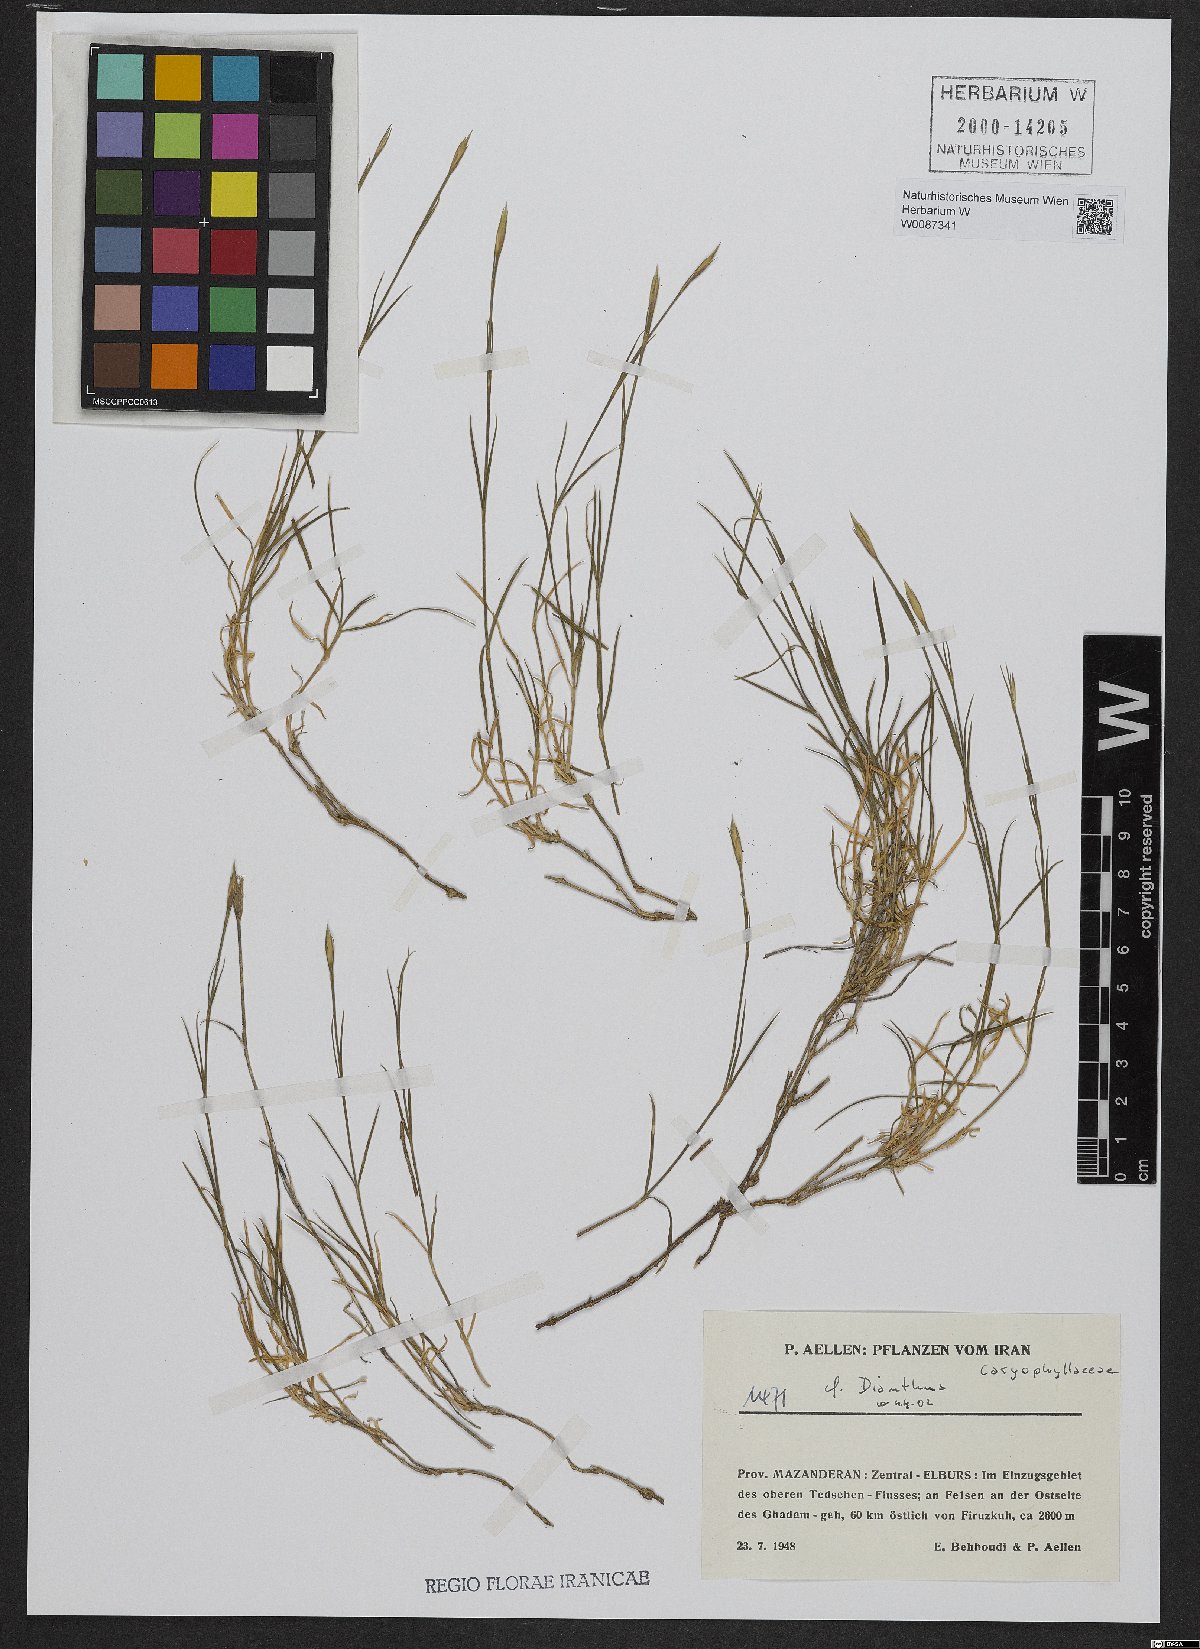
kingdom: Plantae
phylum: Tracheophyta
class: Magnoliopsida
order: Caryophyllales
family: Caryophyllaceae
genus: Dianthus
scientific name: Dianthus
